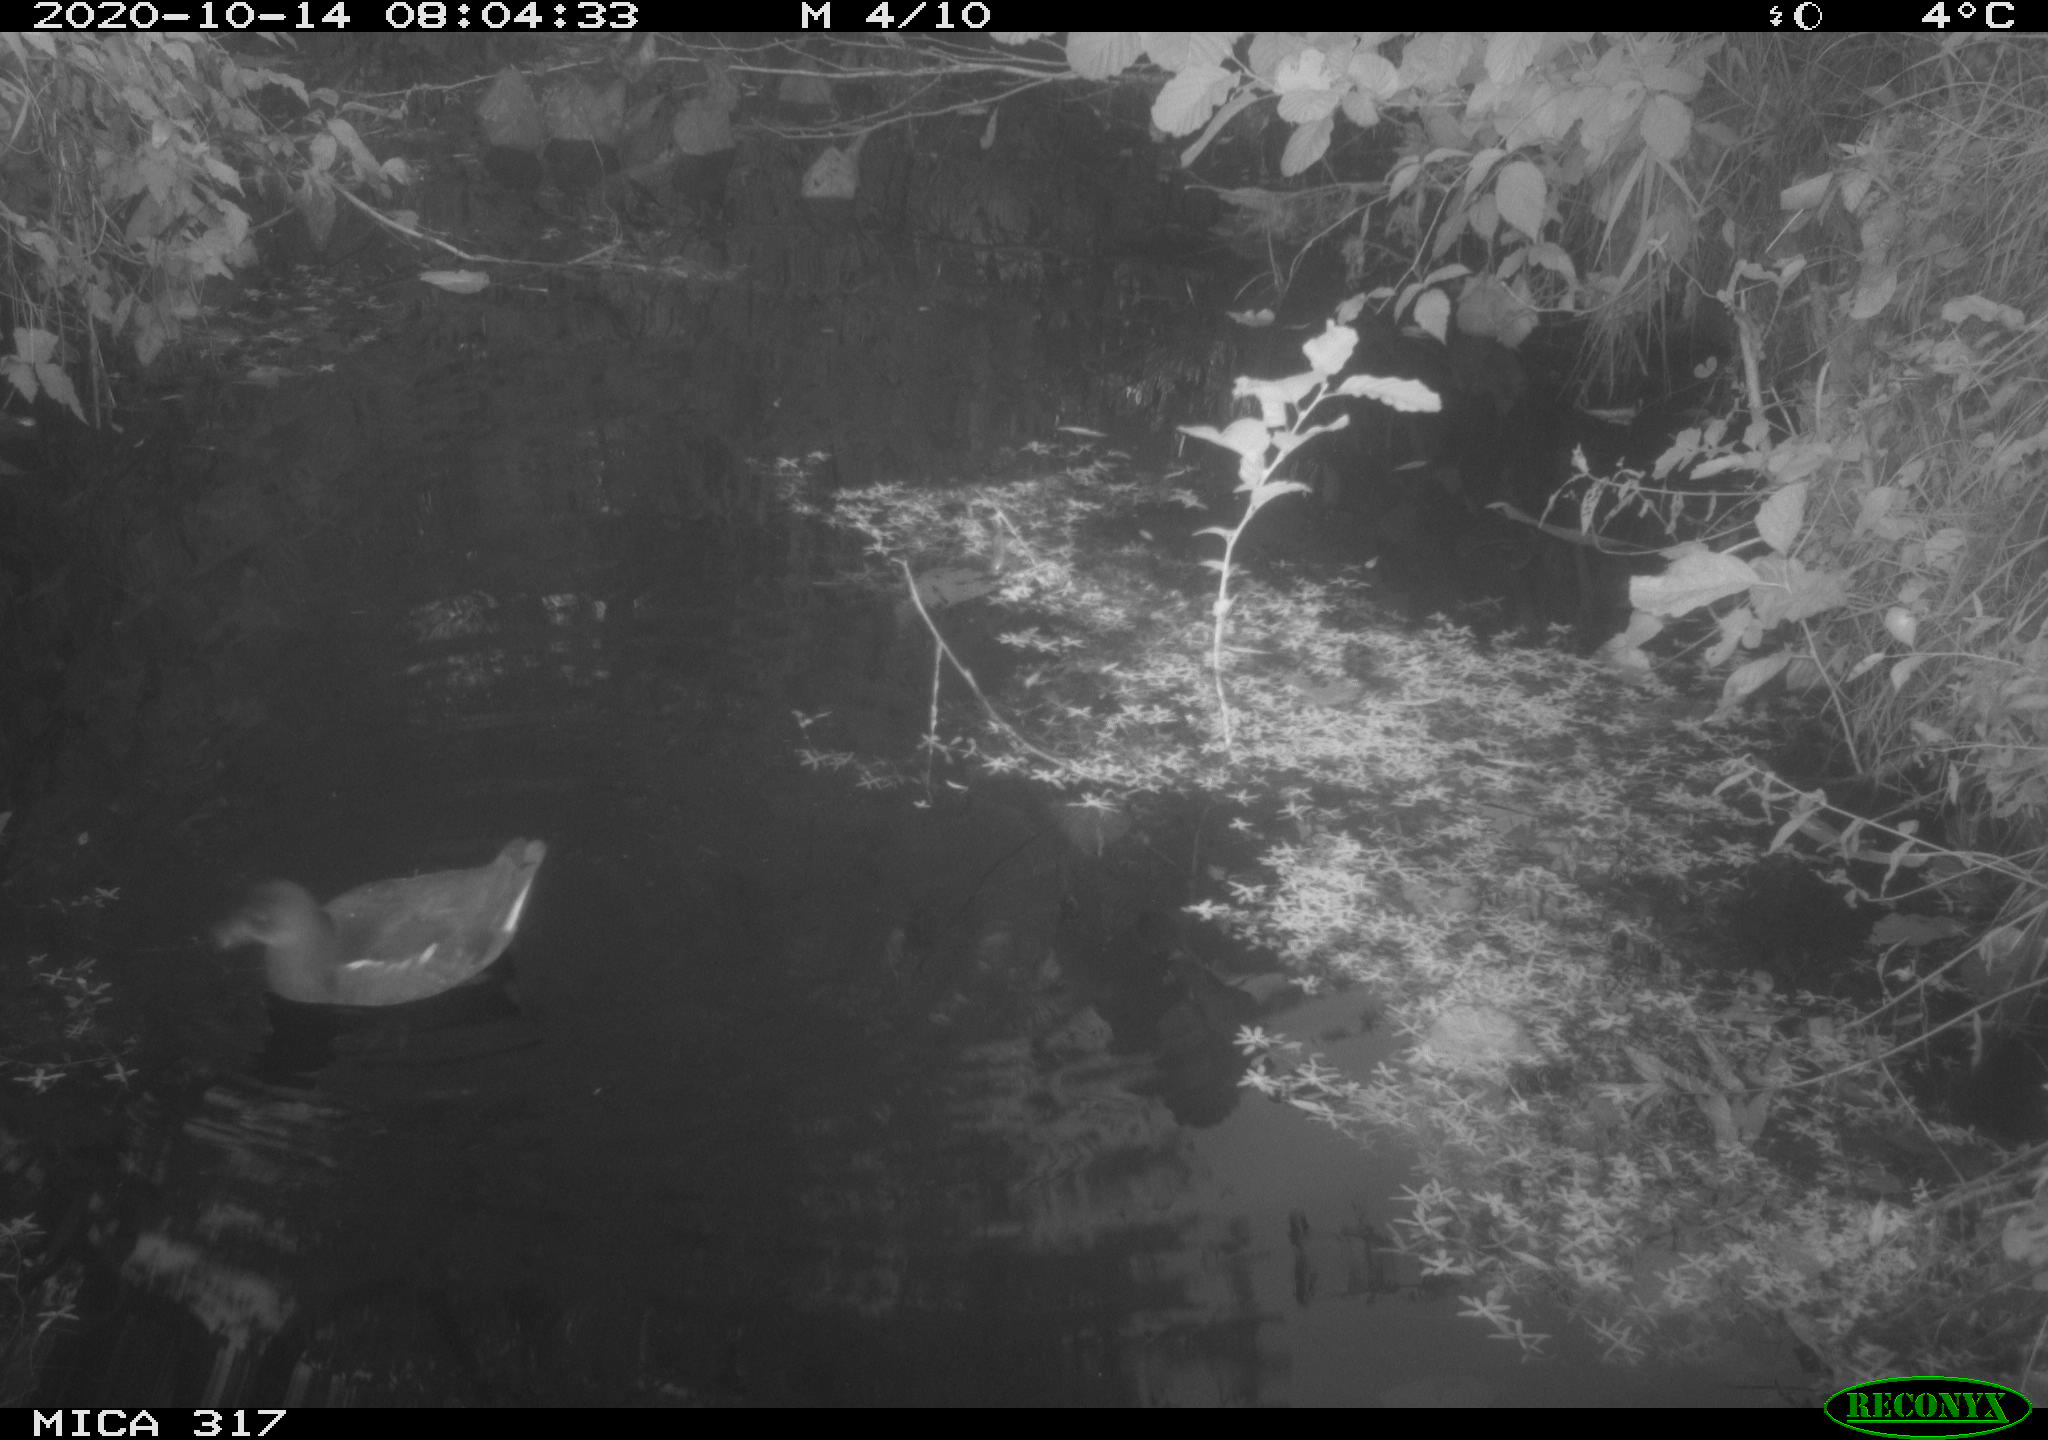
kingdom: Animalia
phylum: Chordata
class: Aves
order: Gruiformes
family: Rallidae
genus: Gallinula
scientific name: Gallinula chloropus
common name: Common moorhen
